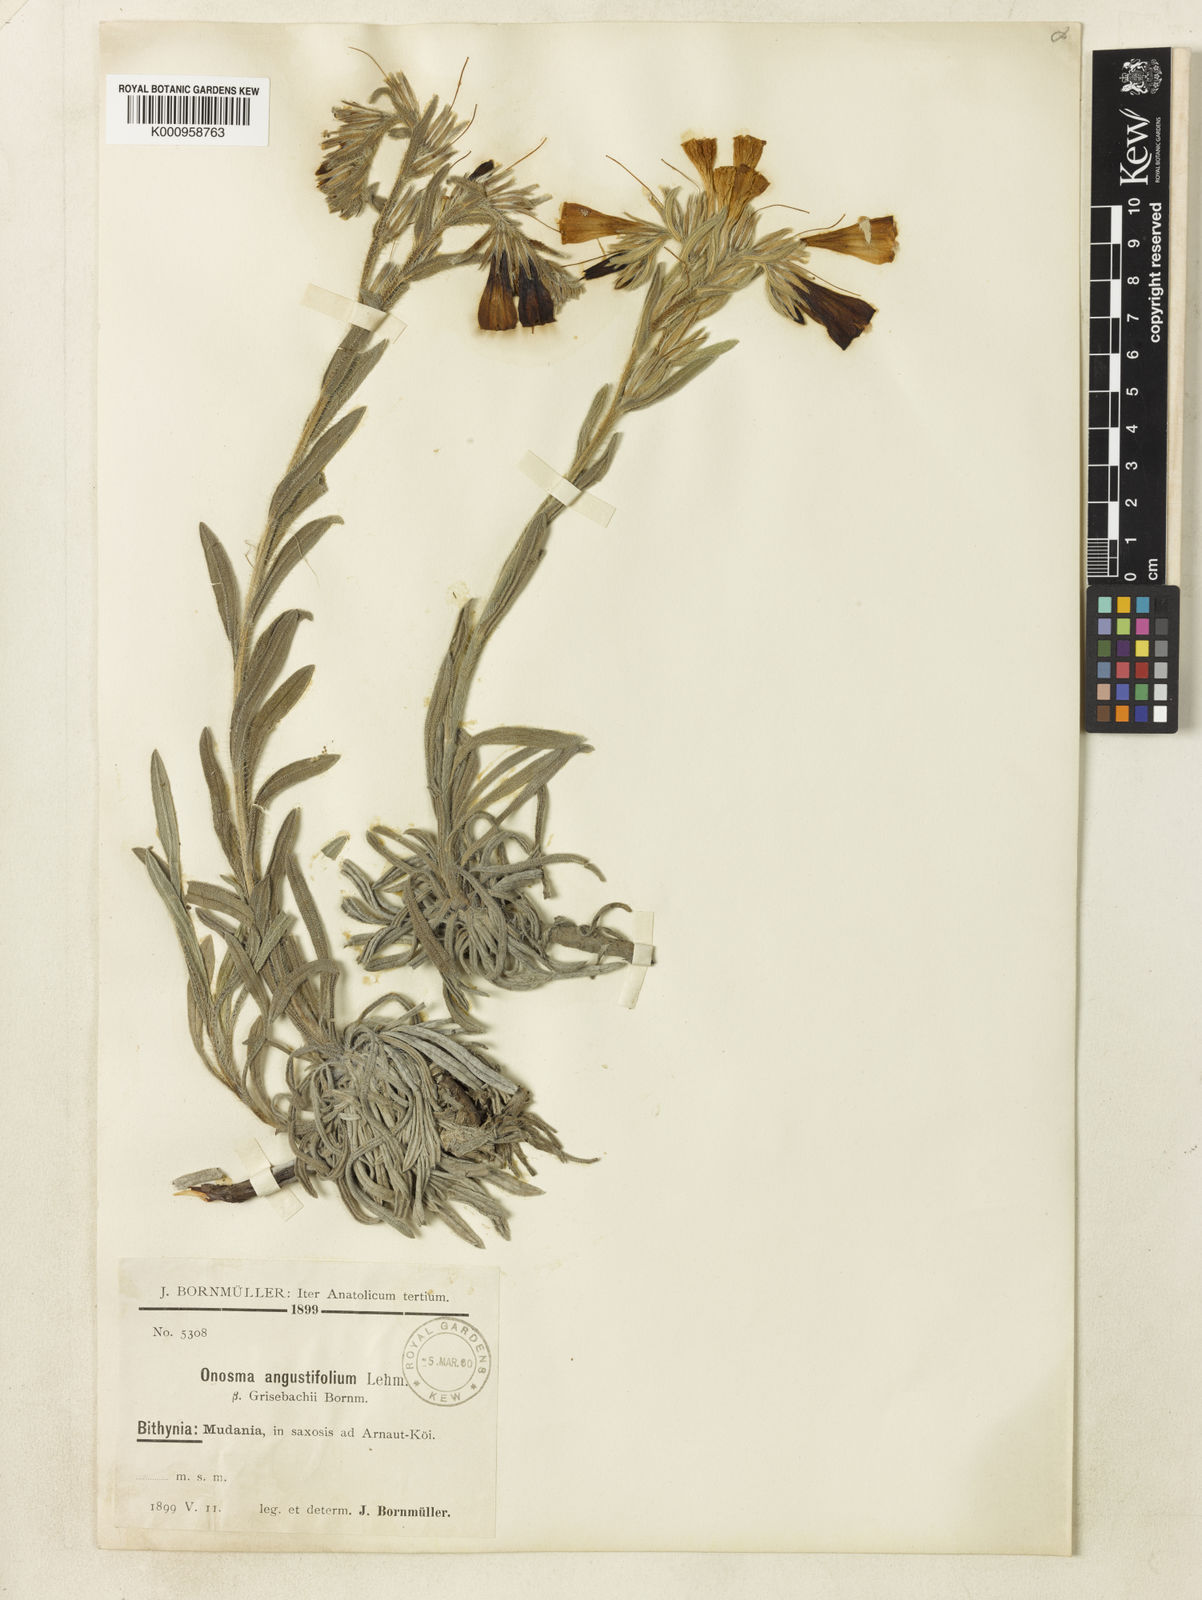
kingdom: Plantae
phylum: Tracheophyta
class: Magnoliopsida
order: Boraginales
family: Boraginaceae
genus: Onosma
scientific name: Onosma aucheriana
